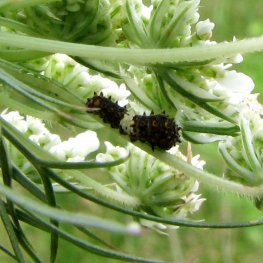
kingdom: Animalia
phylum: Arthropoda
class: Insecta
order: Lepidoptera
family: Papilionidae
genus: Papilio
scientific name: Papilio polyxenes
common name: Black Swallowtail
